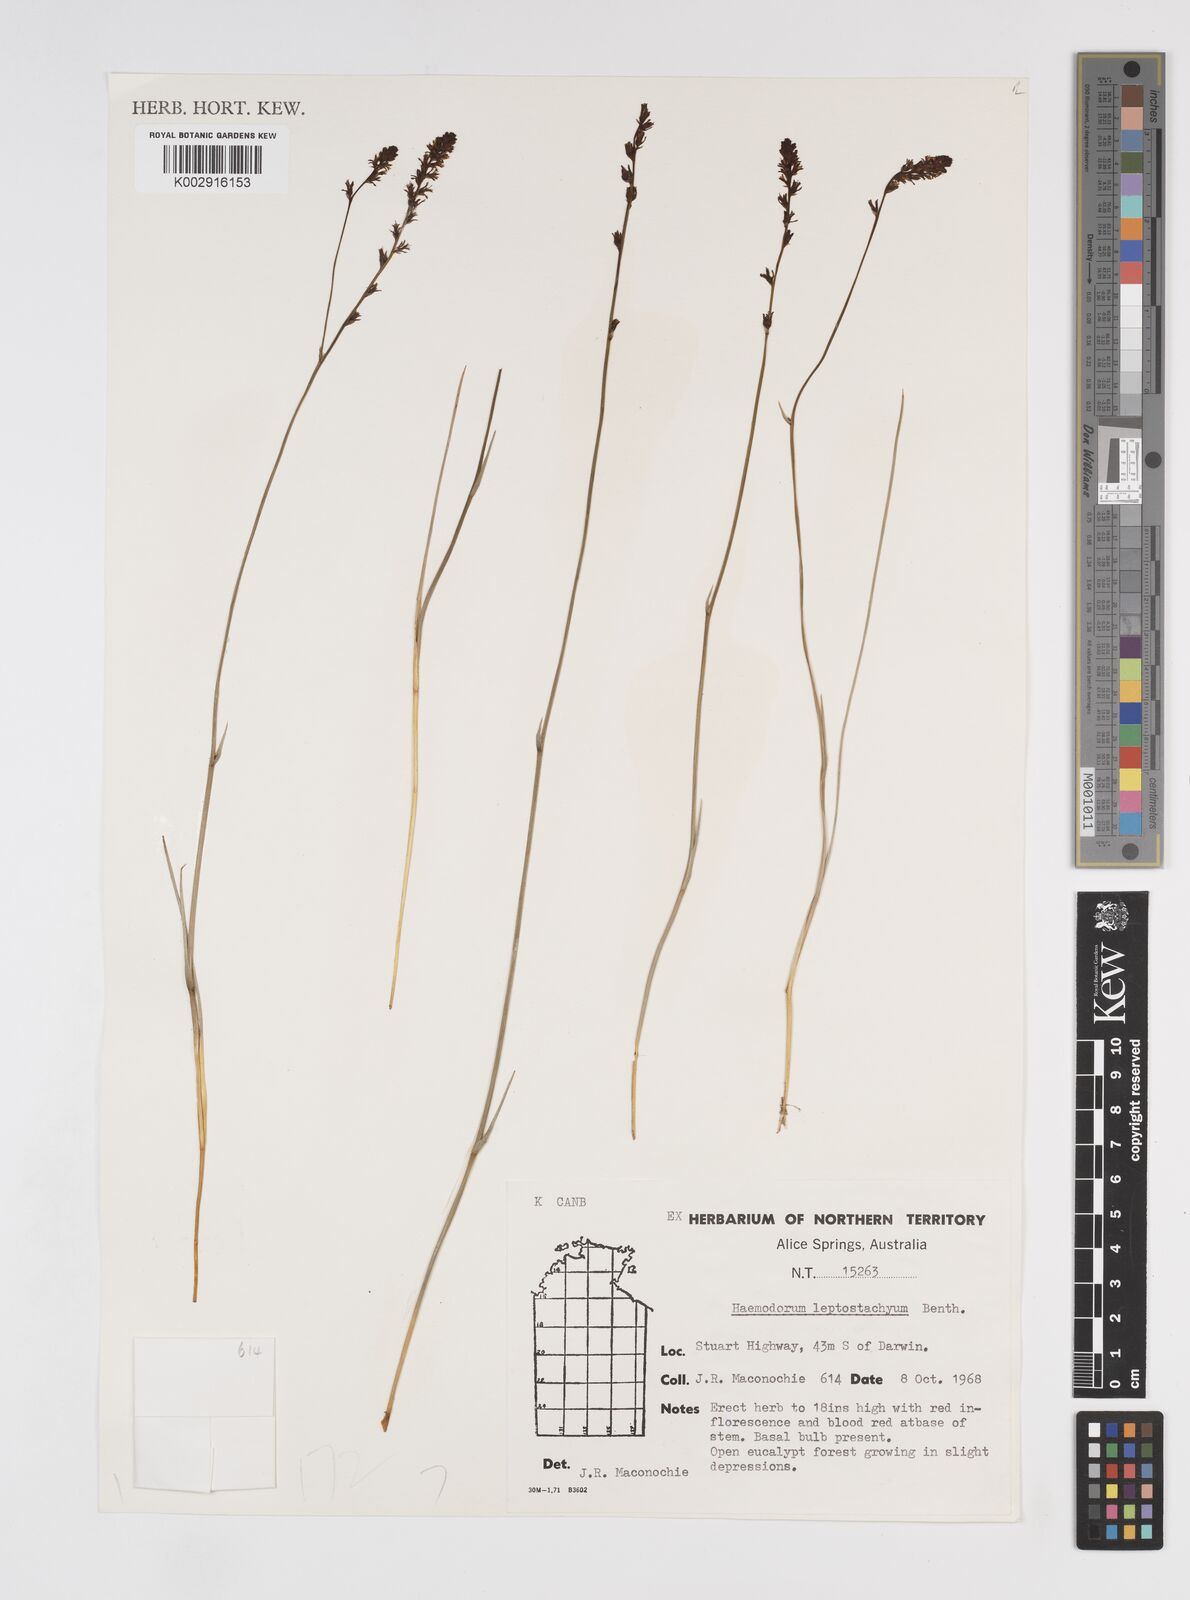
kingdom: Plantae
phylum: Tracheophyta
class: Liliopsida
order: Commelinales
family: Haemodoraceae
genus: Haemodorum
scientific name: Haemodorum parviflorum
